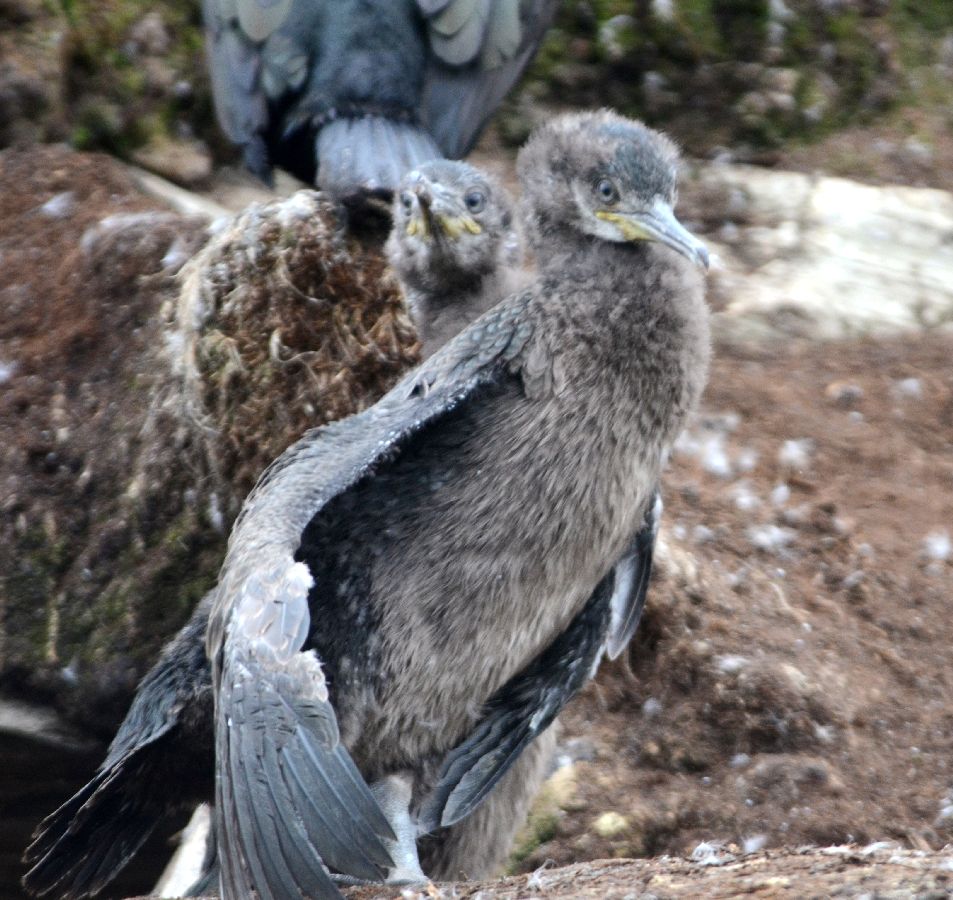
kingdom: Animalia
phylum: Chordata
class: Aves
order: Suliformes
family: Phalacrocoracidae
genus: Phalacrocorax
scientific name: Phalacrocorax aristotelis
